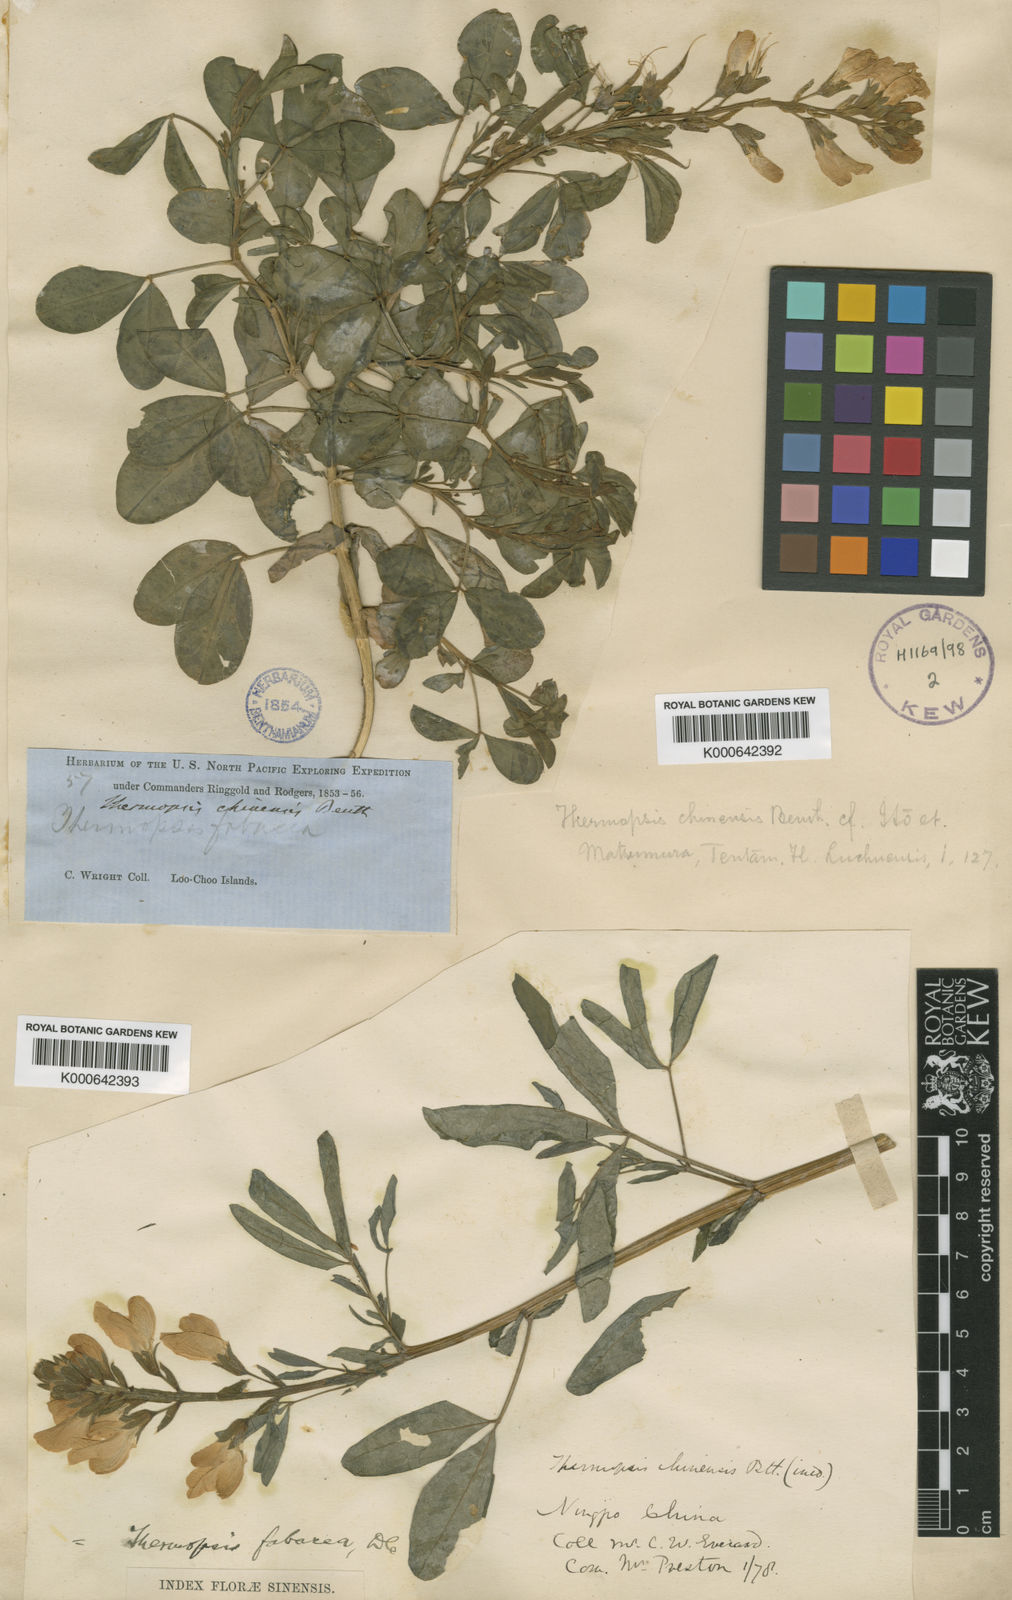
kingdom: Plantae
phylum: Tracheophyta
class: Magnoliopsida
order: Fabales
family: Fabaceae
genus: Thermopsis
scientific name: Thermopsis chinensis
